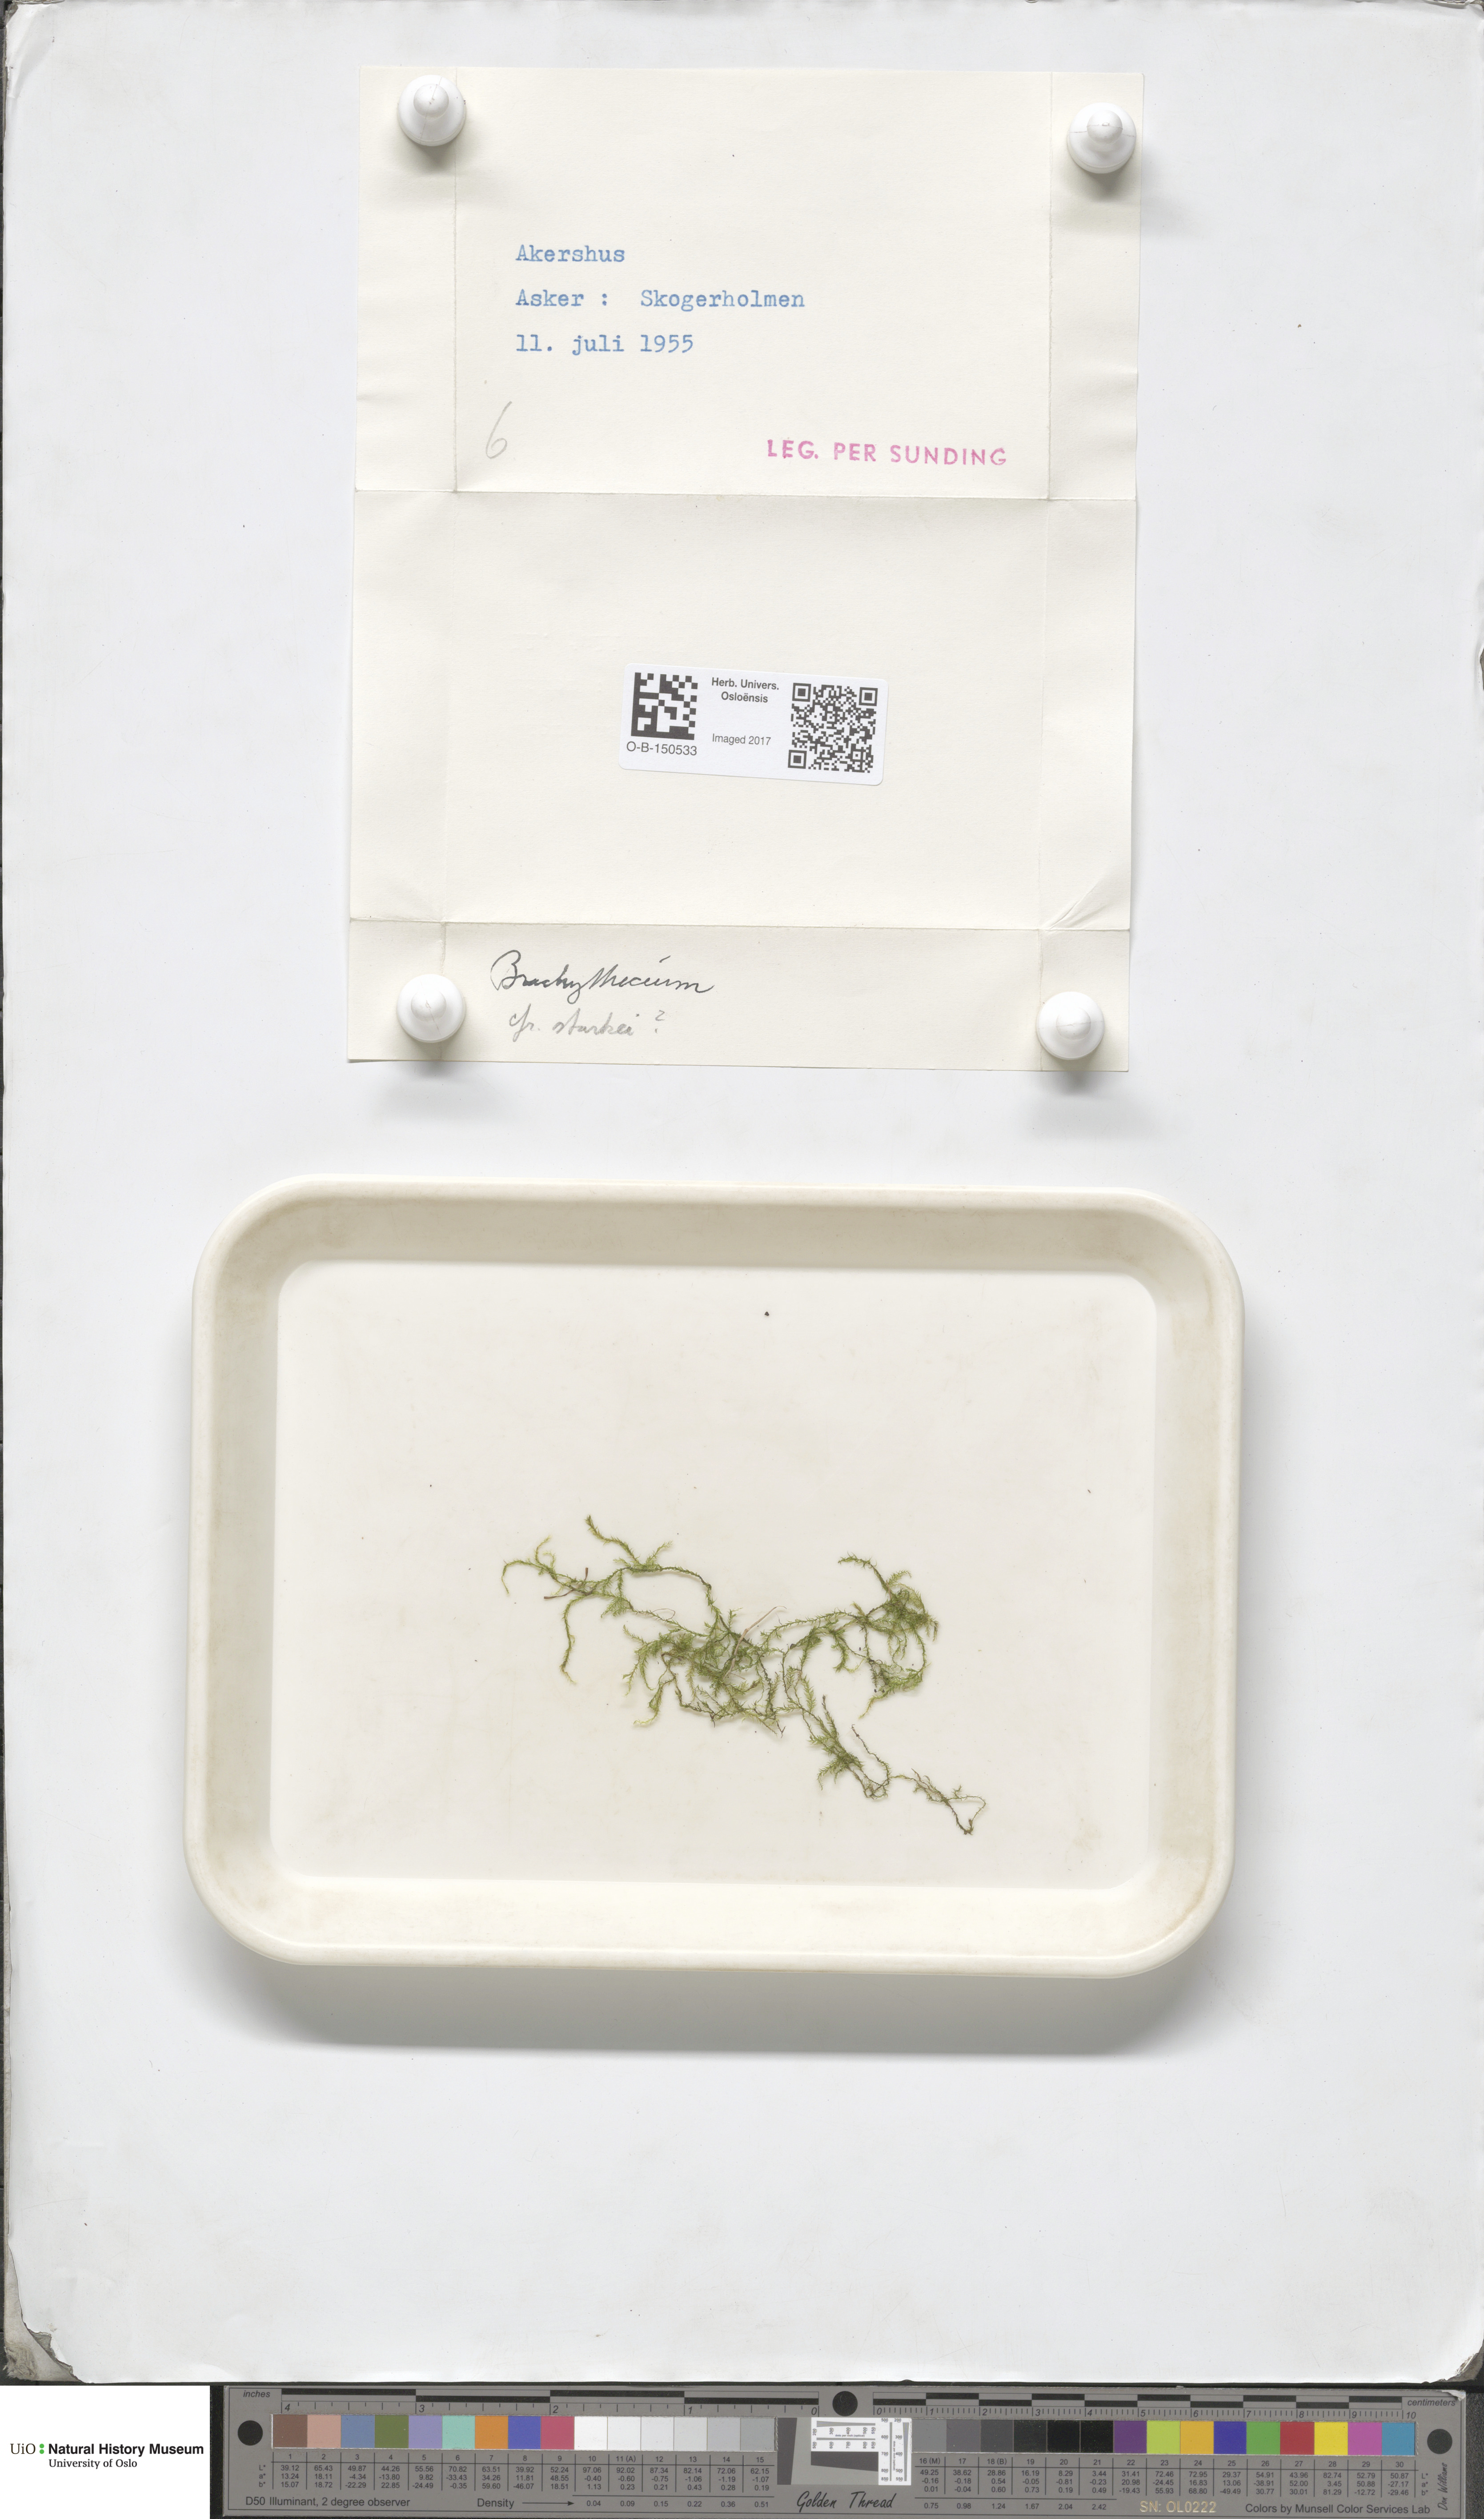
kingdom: Plantae
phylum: Bryophyta
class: Bryopsida
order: Hypnales
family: Brachytheciaceae
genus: Sciuro-hypnum
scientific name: Sciuro-hypnum starkei
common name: Starke's feather-moss
